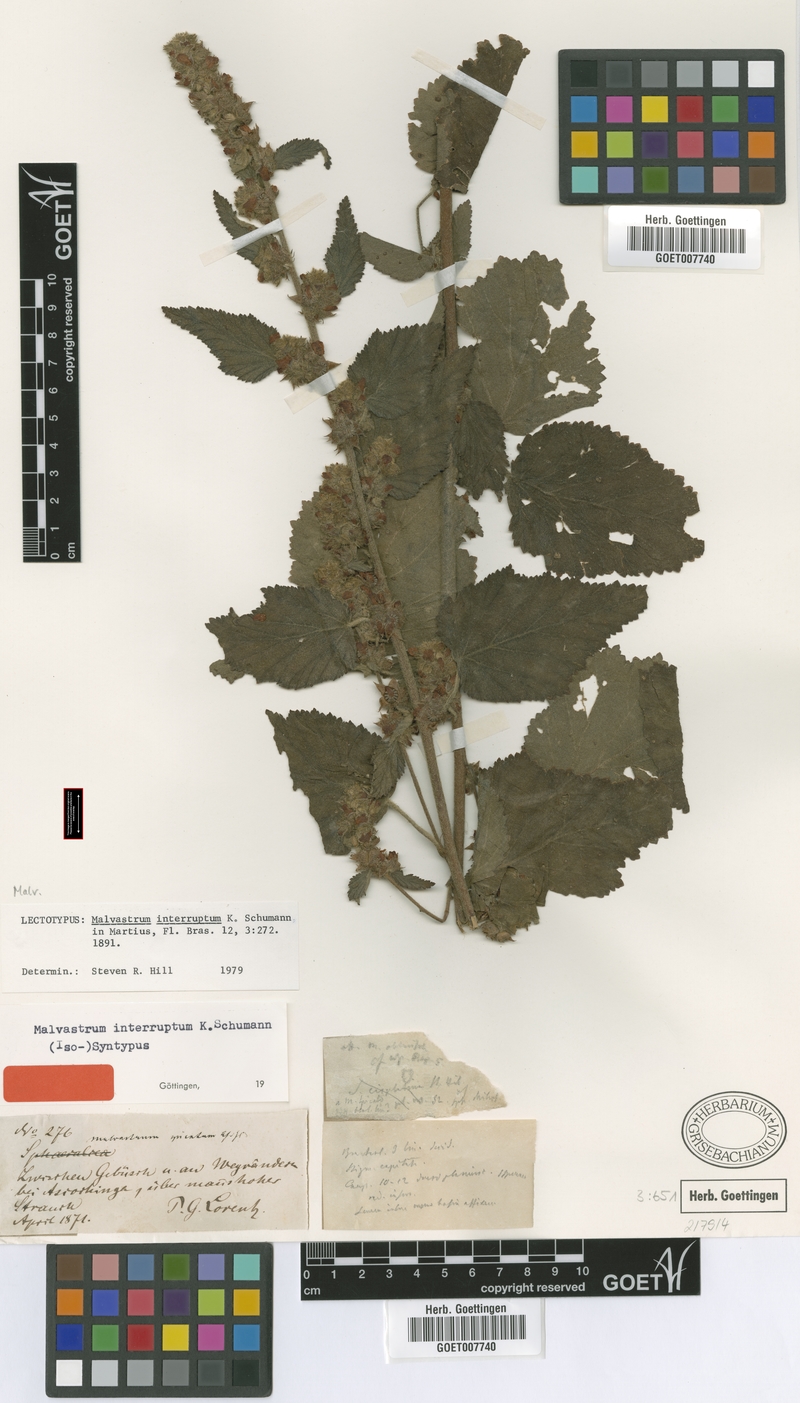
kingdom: Plantae
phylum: Tracheophyta
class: Magnoliopsida
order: Malvales
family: Malvaceae
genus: Malvastrum
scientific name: Malvastrum interruptum
